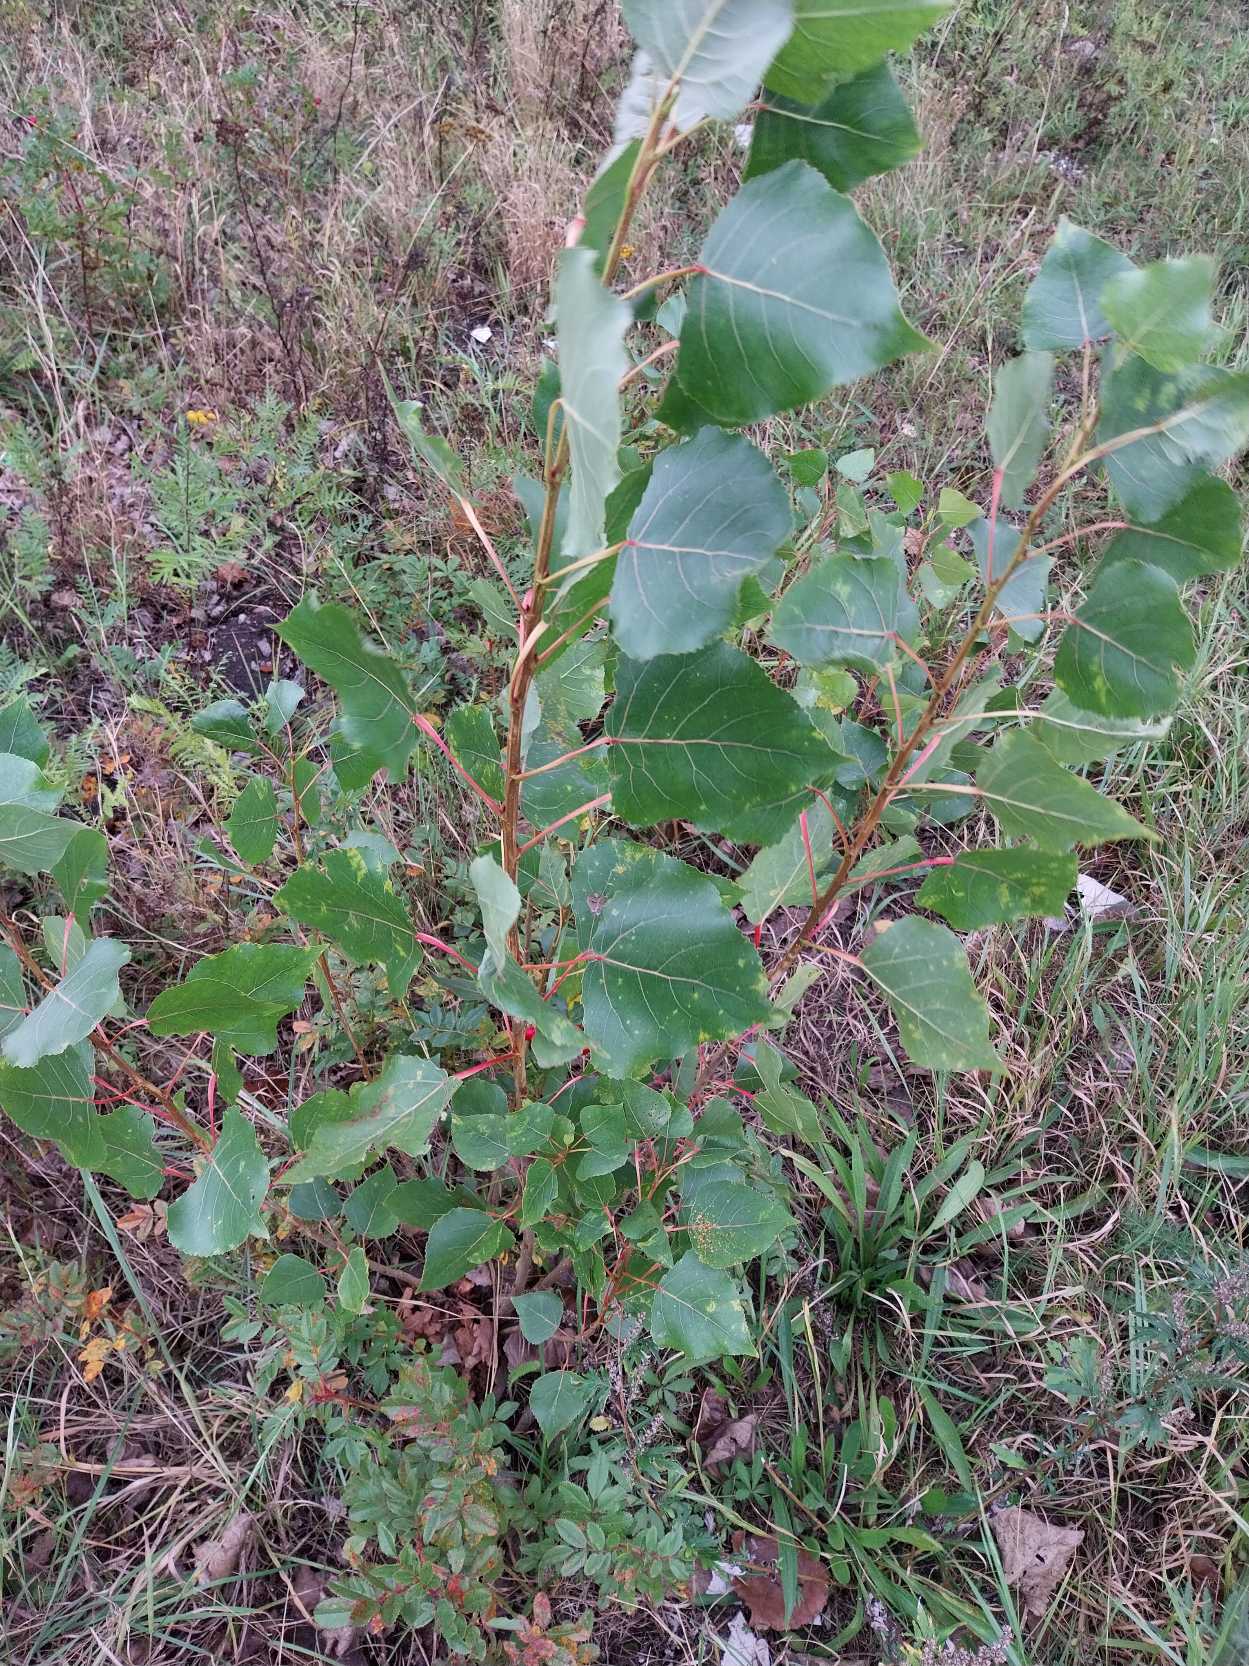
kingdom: Plantae
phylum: Tracheophyta
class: Magnoliopsida
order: Malpighiales
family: Salicaceae
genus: Populus
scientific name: Populus nigra
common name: Sort-poppel
